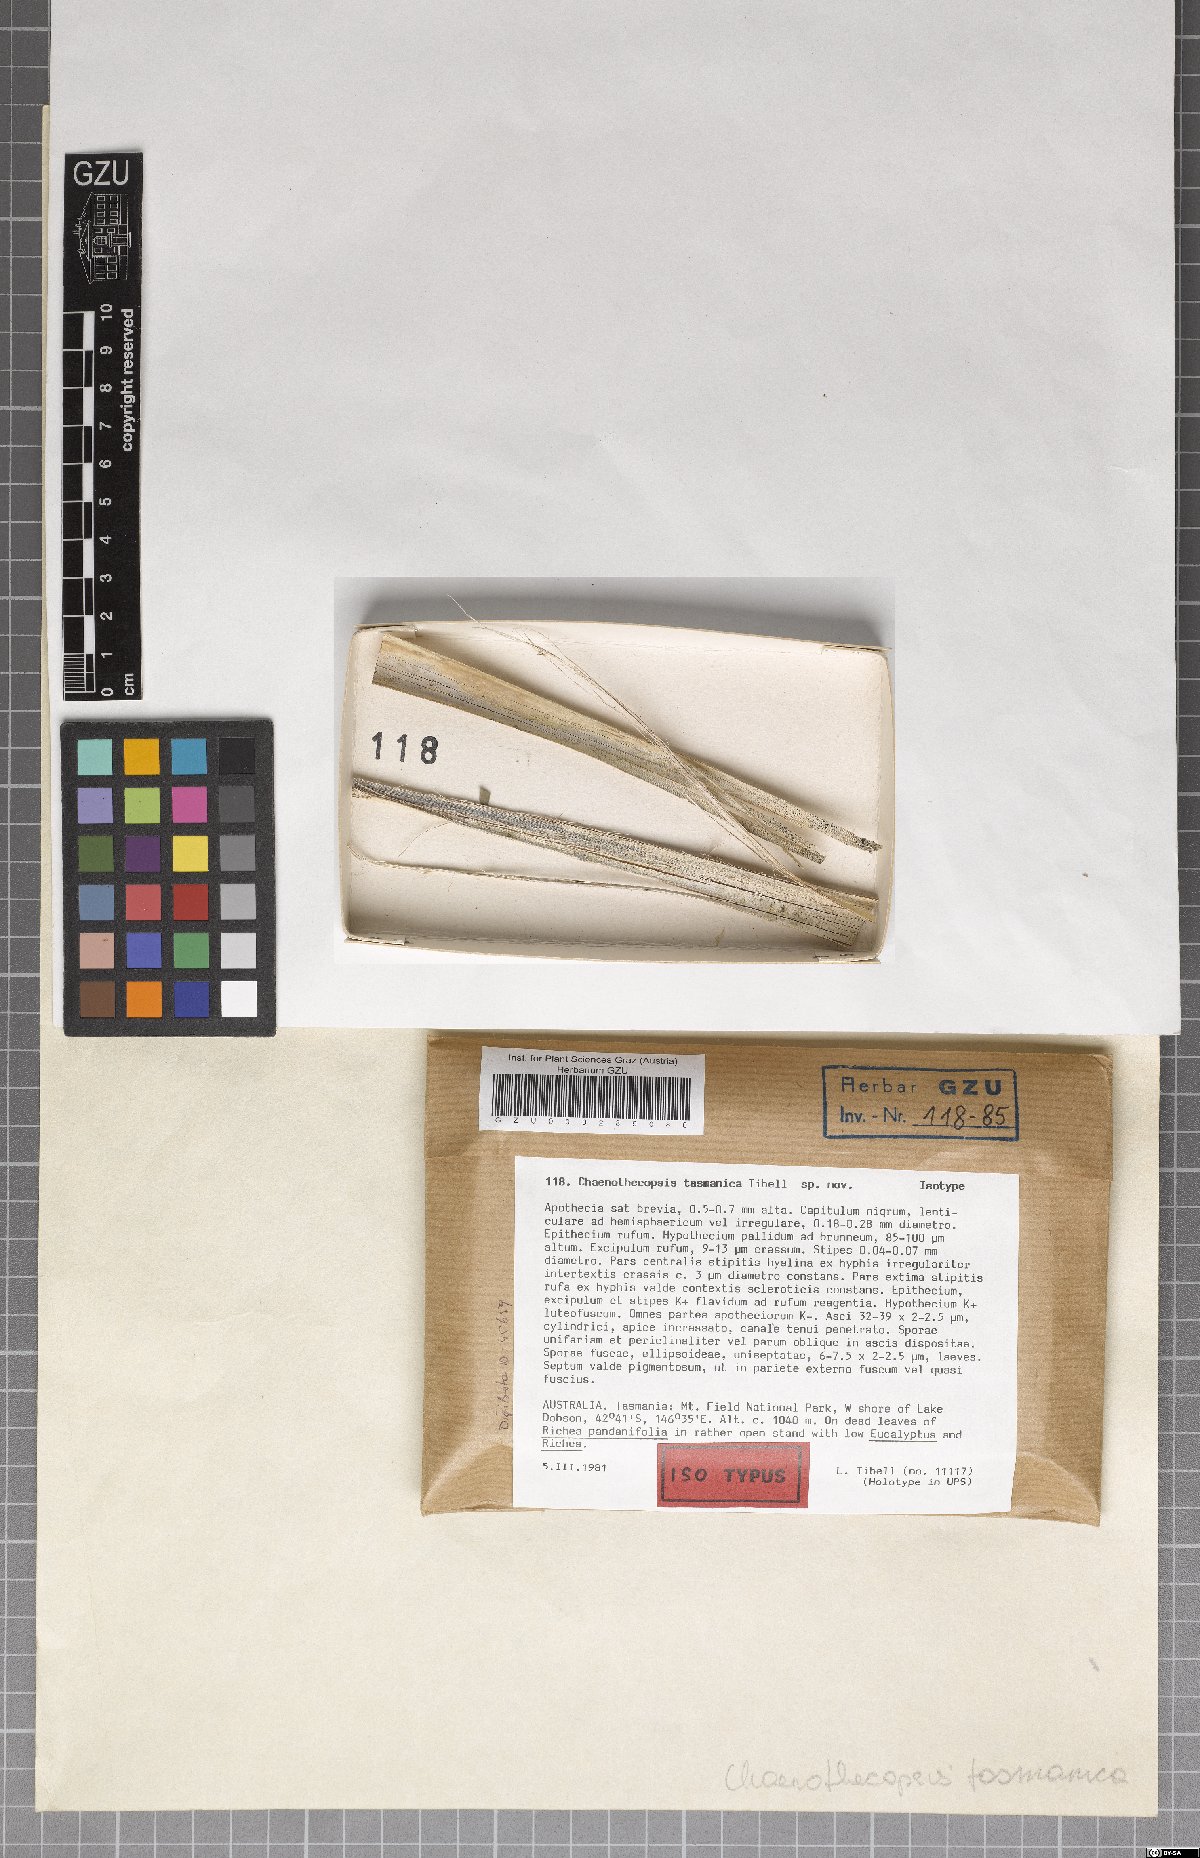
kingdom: Fungi
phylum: Ascomycota
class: Eurotiomycetes
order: Mycocaliciales
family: Mycocaliciaceae
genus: Chaenothecopsis
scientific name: Chaenothecopsis tasmanica
